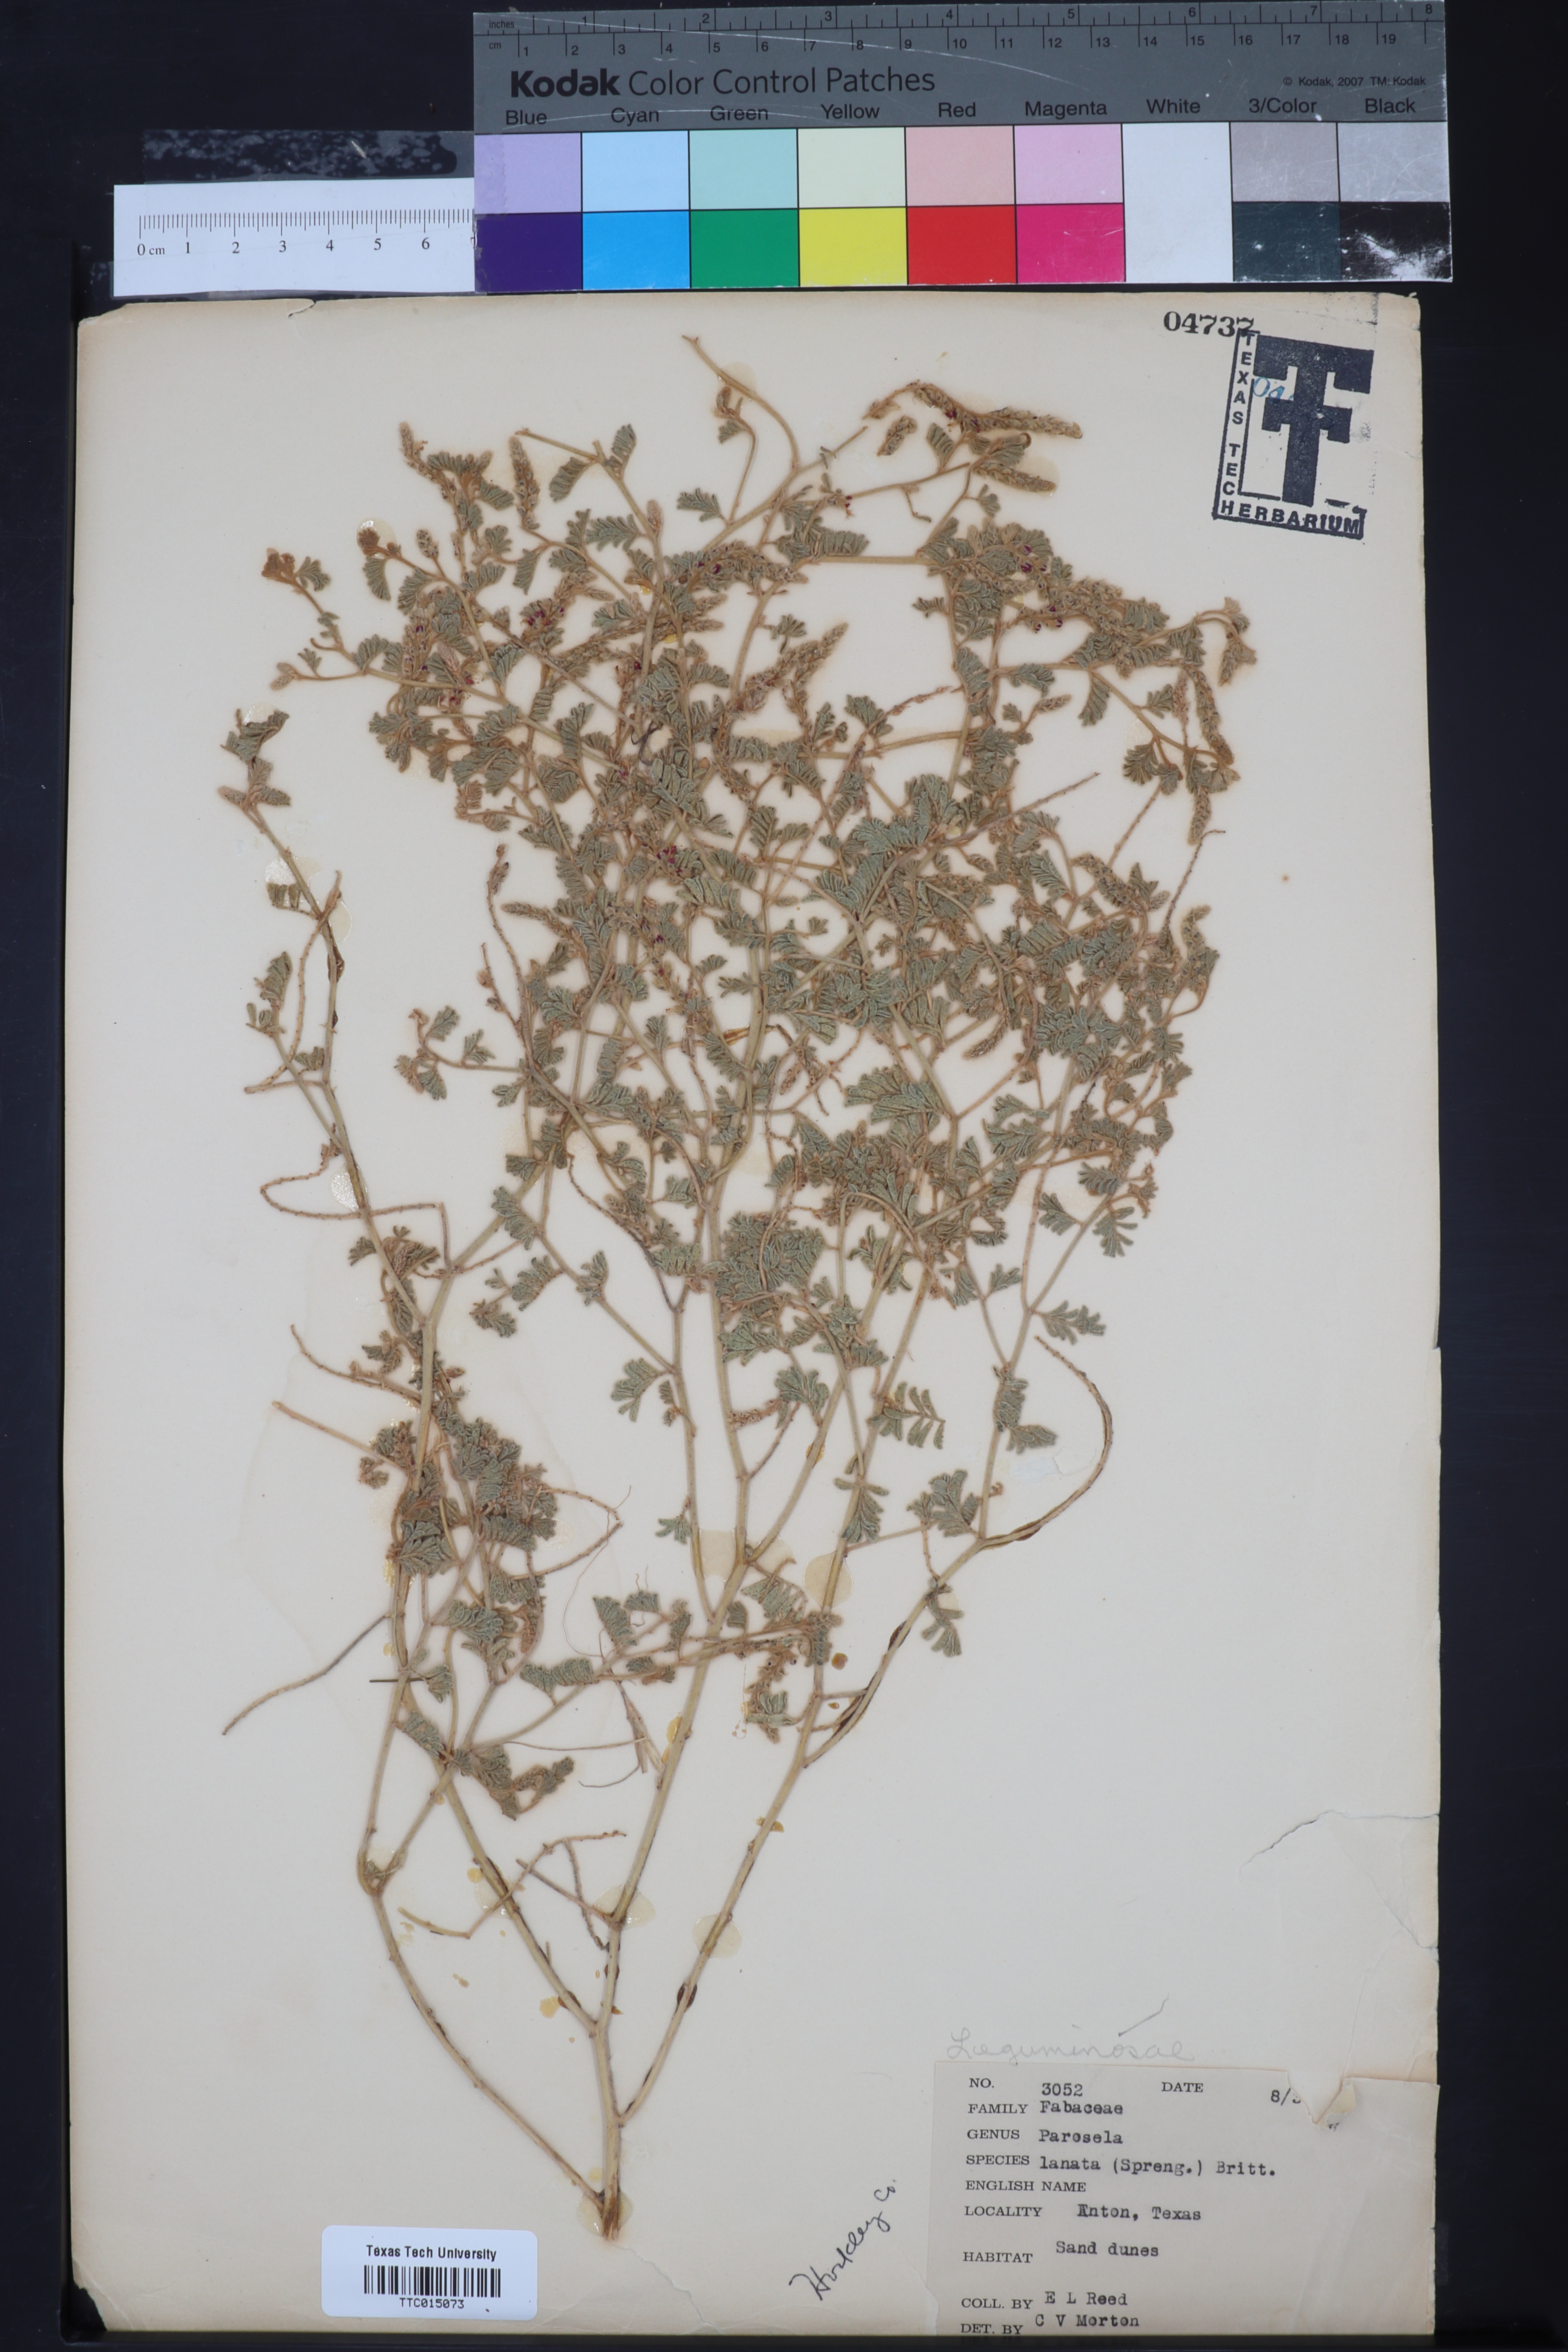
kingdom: Plantae
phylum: Tracheophyta
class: Magnoliopsida
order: Fabales
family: Fabaceae
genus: Dalea
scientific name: Dalea lanata
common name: Woolly dalea
